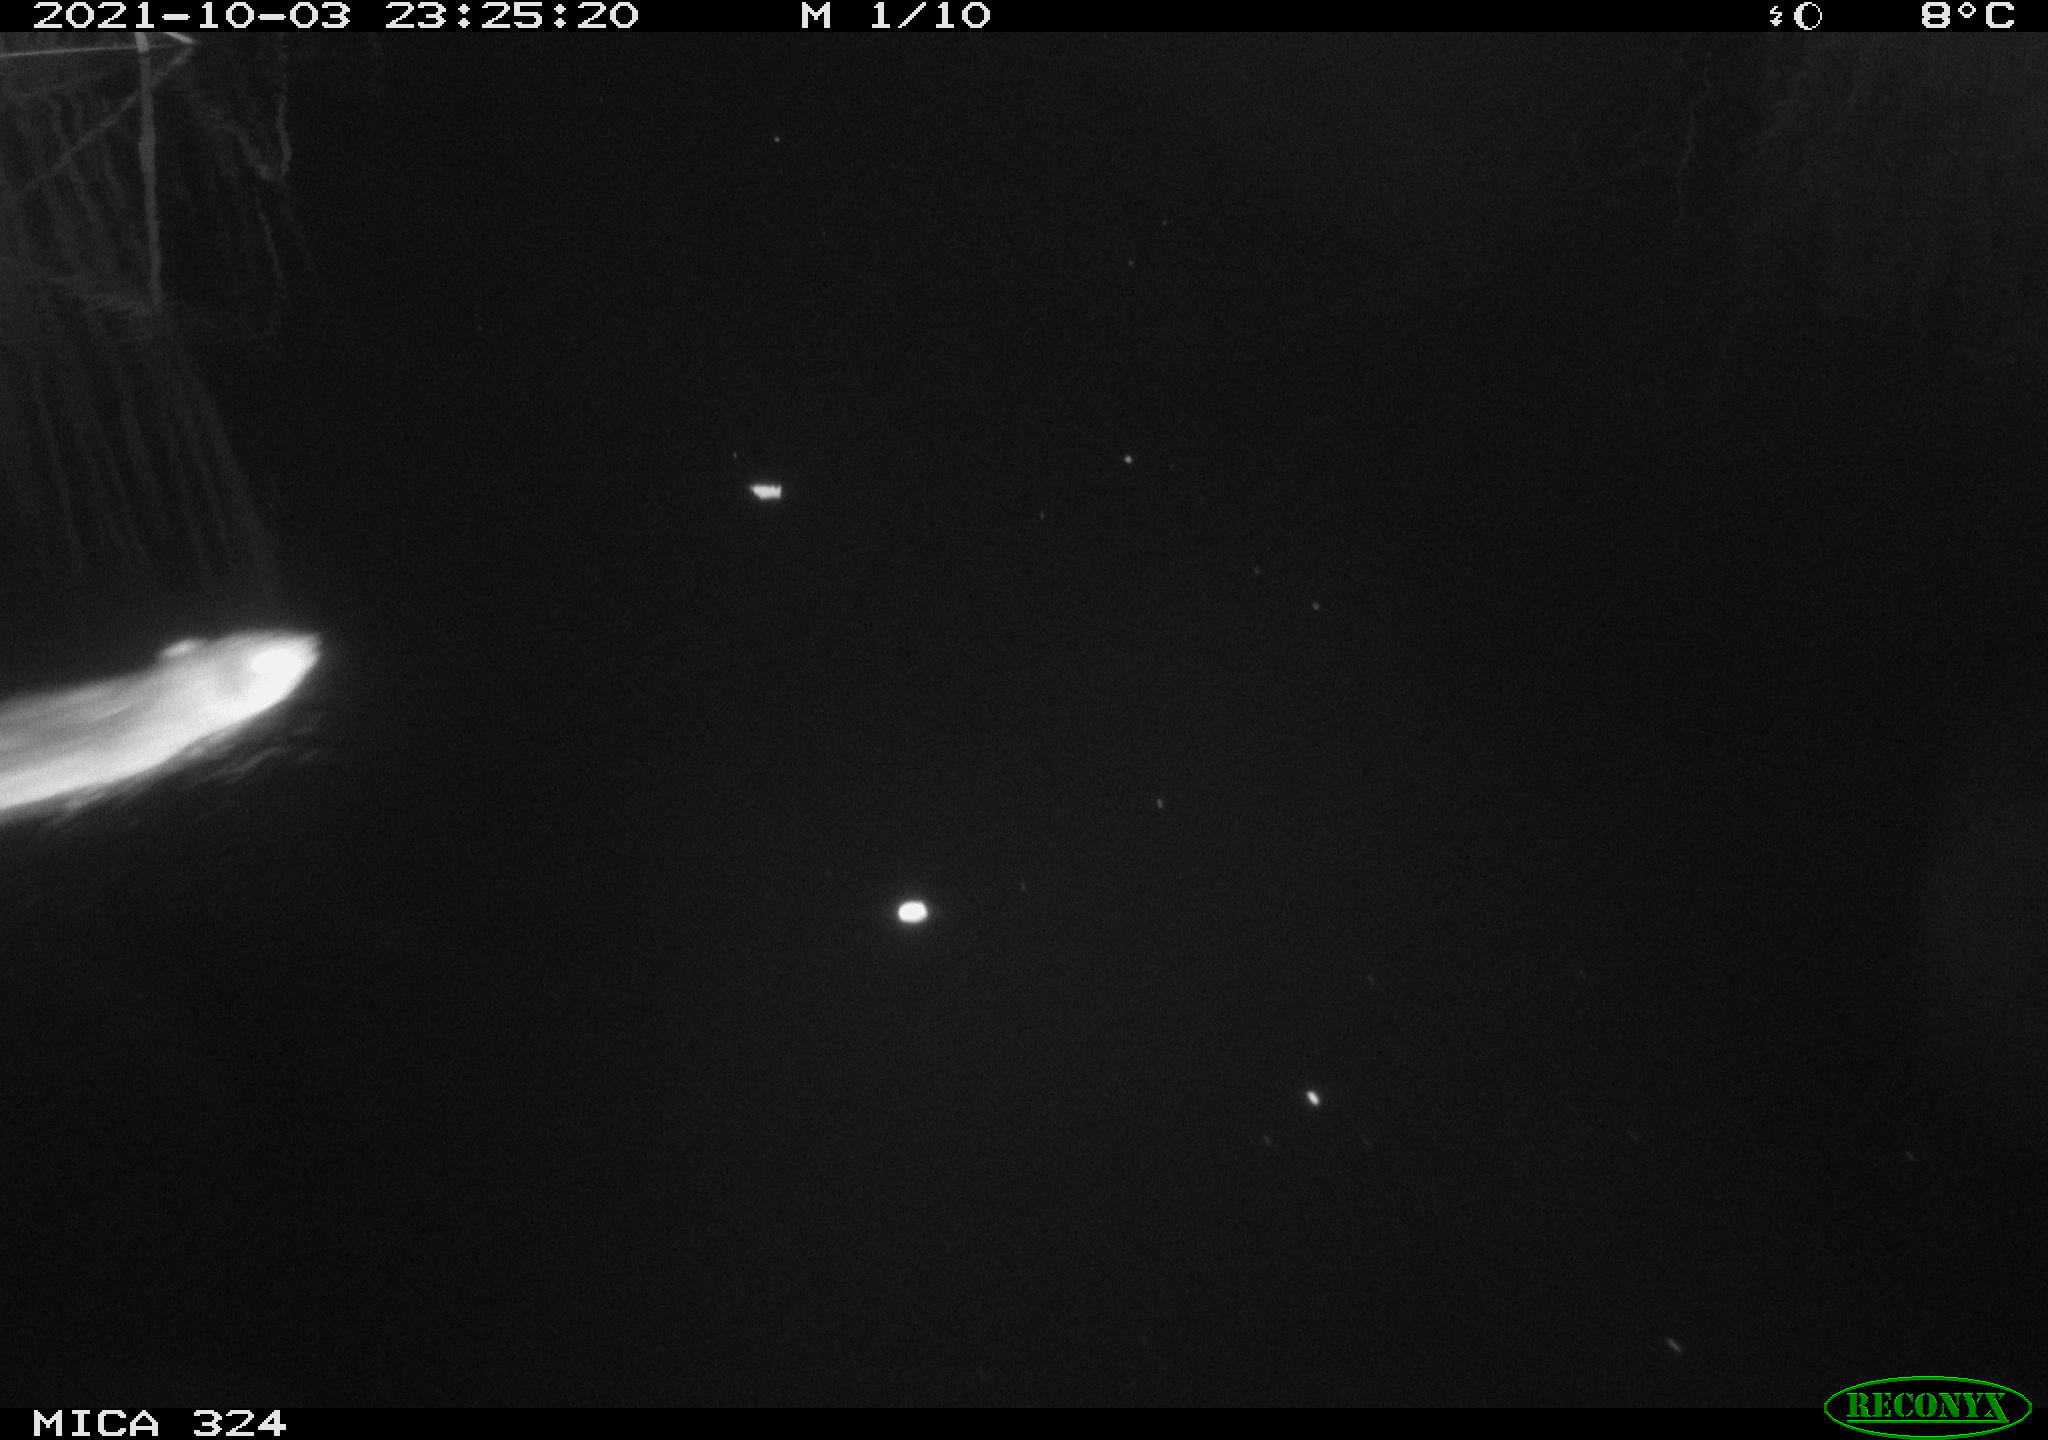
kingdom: Animalia
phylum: Chordata
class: Mammalia
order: Rodentia
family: Cricetidae
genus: Ondatra
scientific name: Ondatra zibethicus
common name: Muskrat
